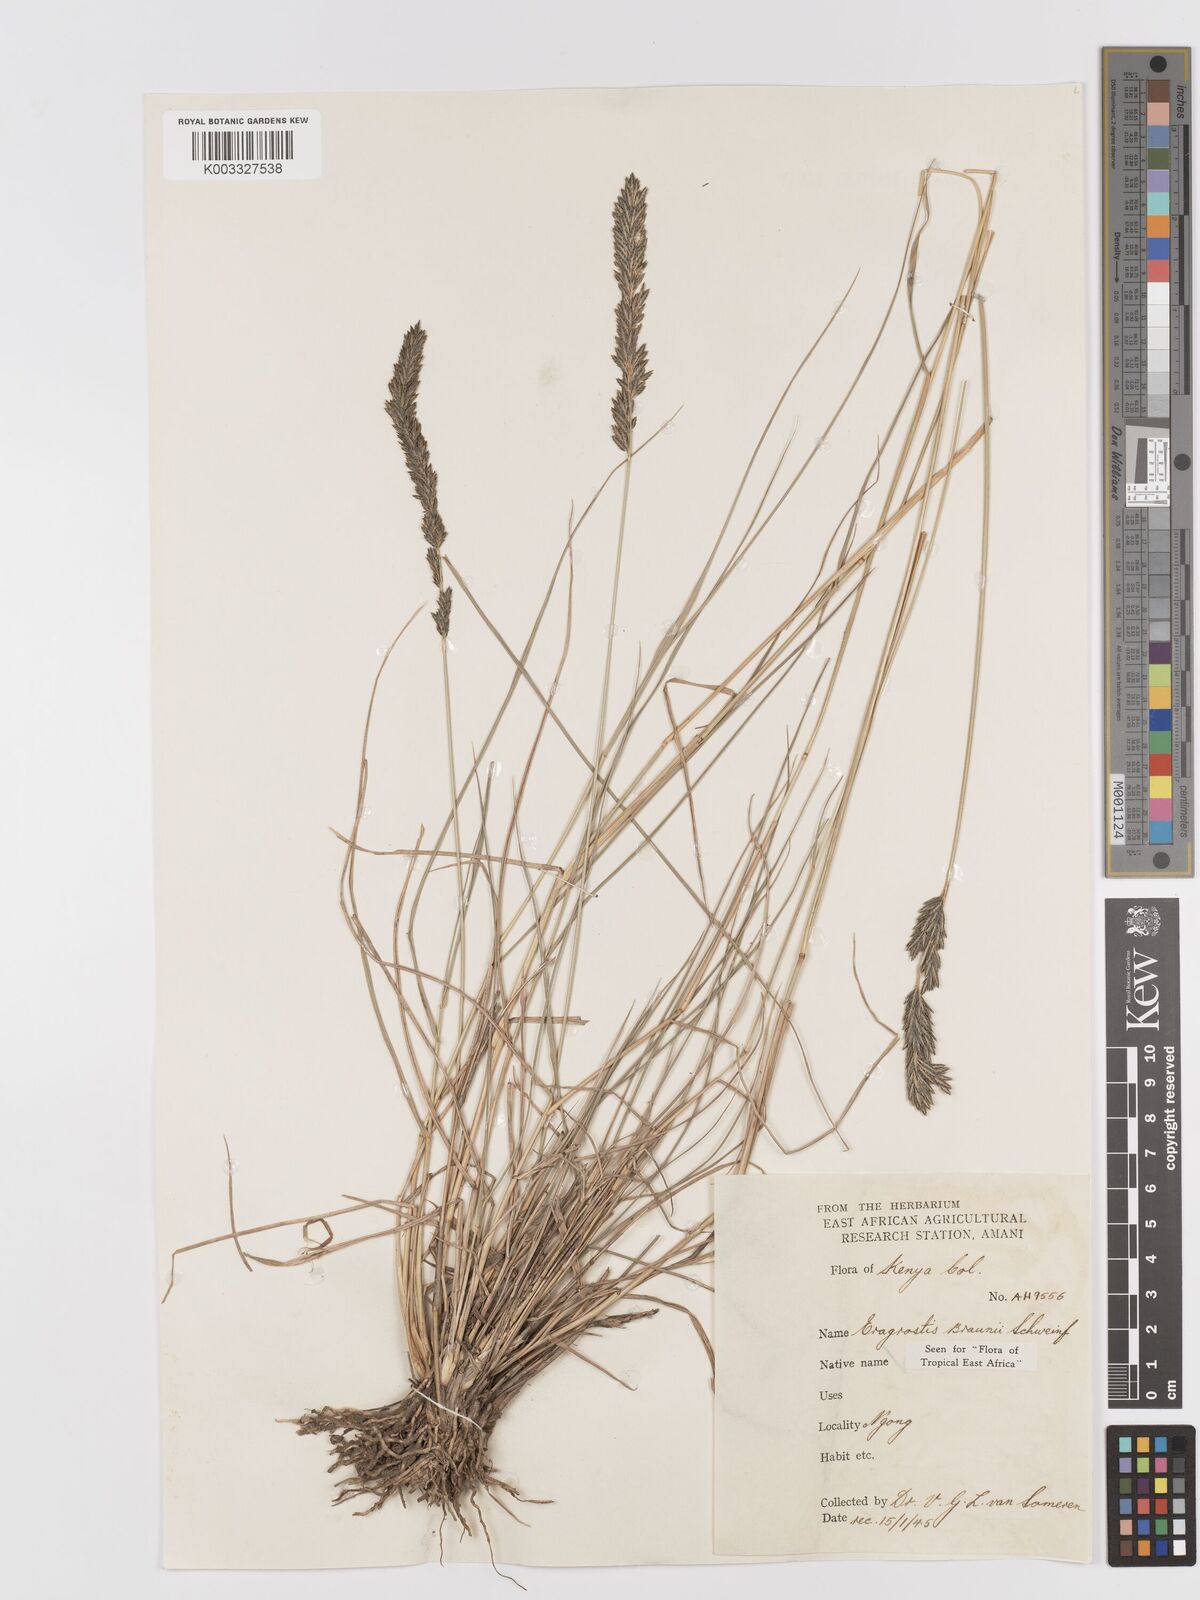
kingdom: Plantae
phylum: Tracheophyta
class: Liliopsida
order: Poales
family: Poaceae
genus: Eragrostis
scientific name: Eragrostis braunii
